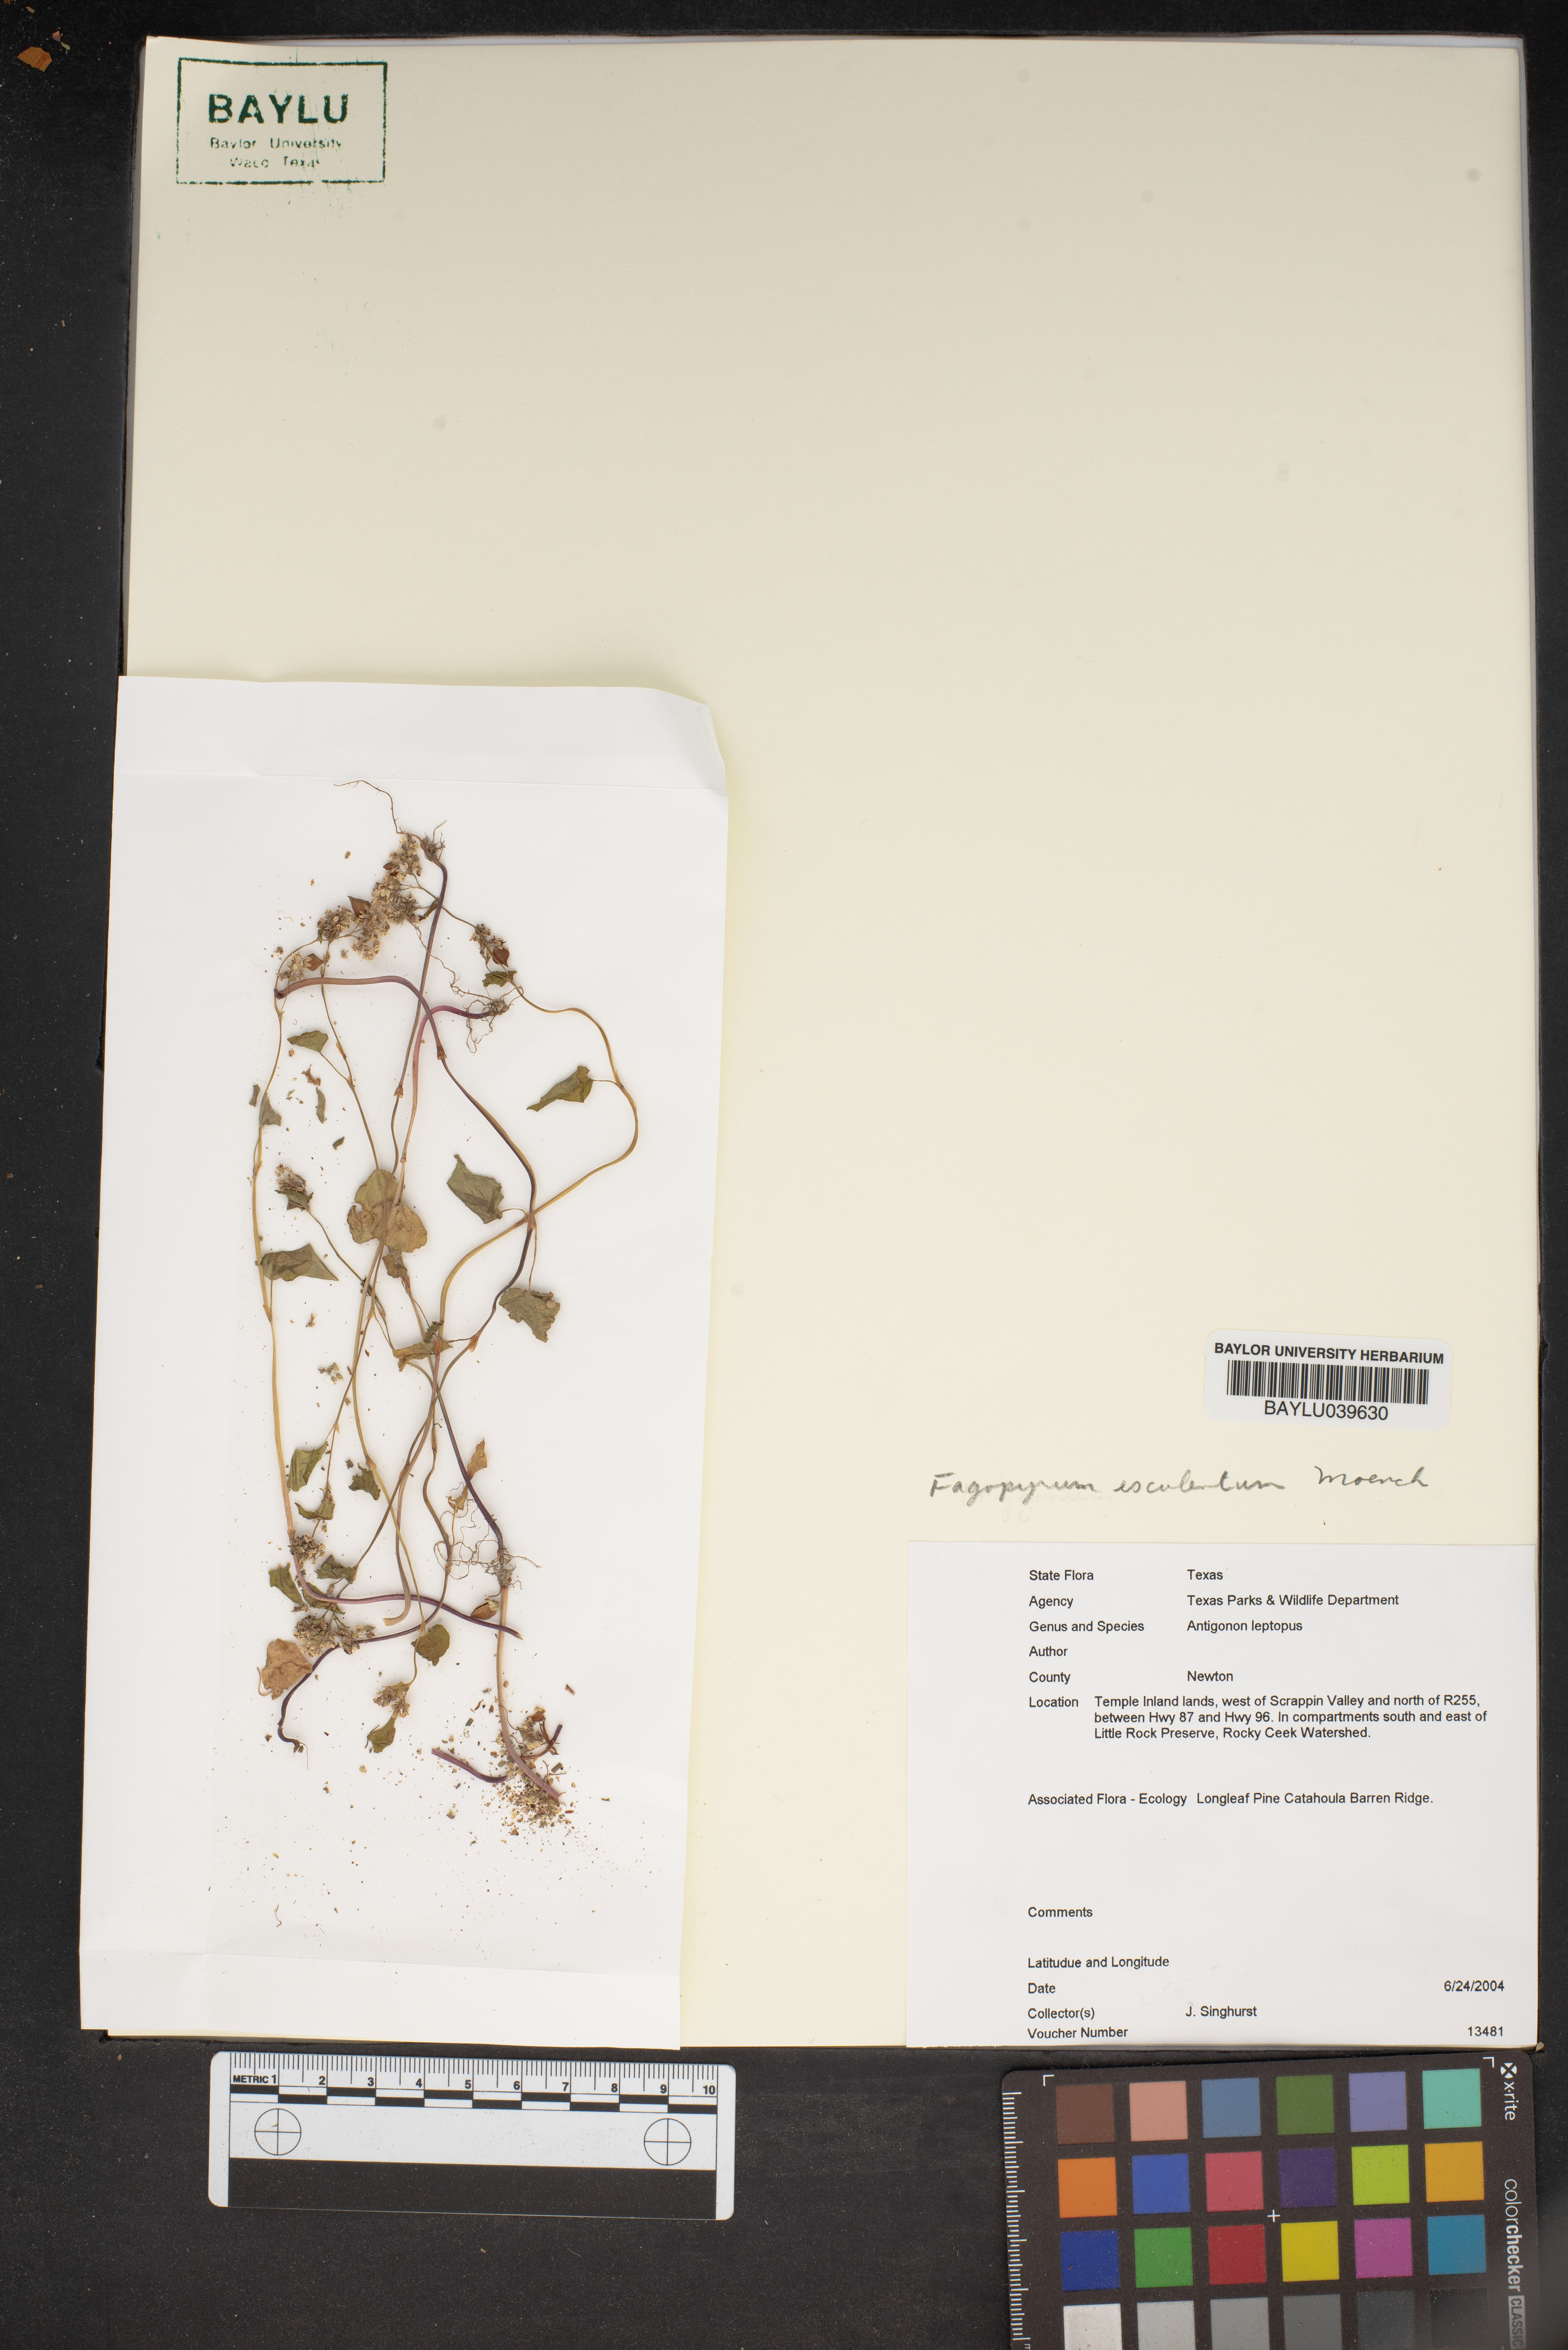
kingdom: Plantae
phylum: Tracheophyta
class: Magnoliopsida
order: Caryophyllales
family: Polygonaceae
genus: Antigonon
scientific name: Antigonon leptopus
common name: Coral vine
